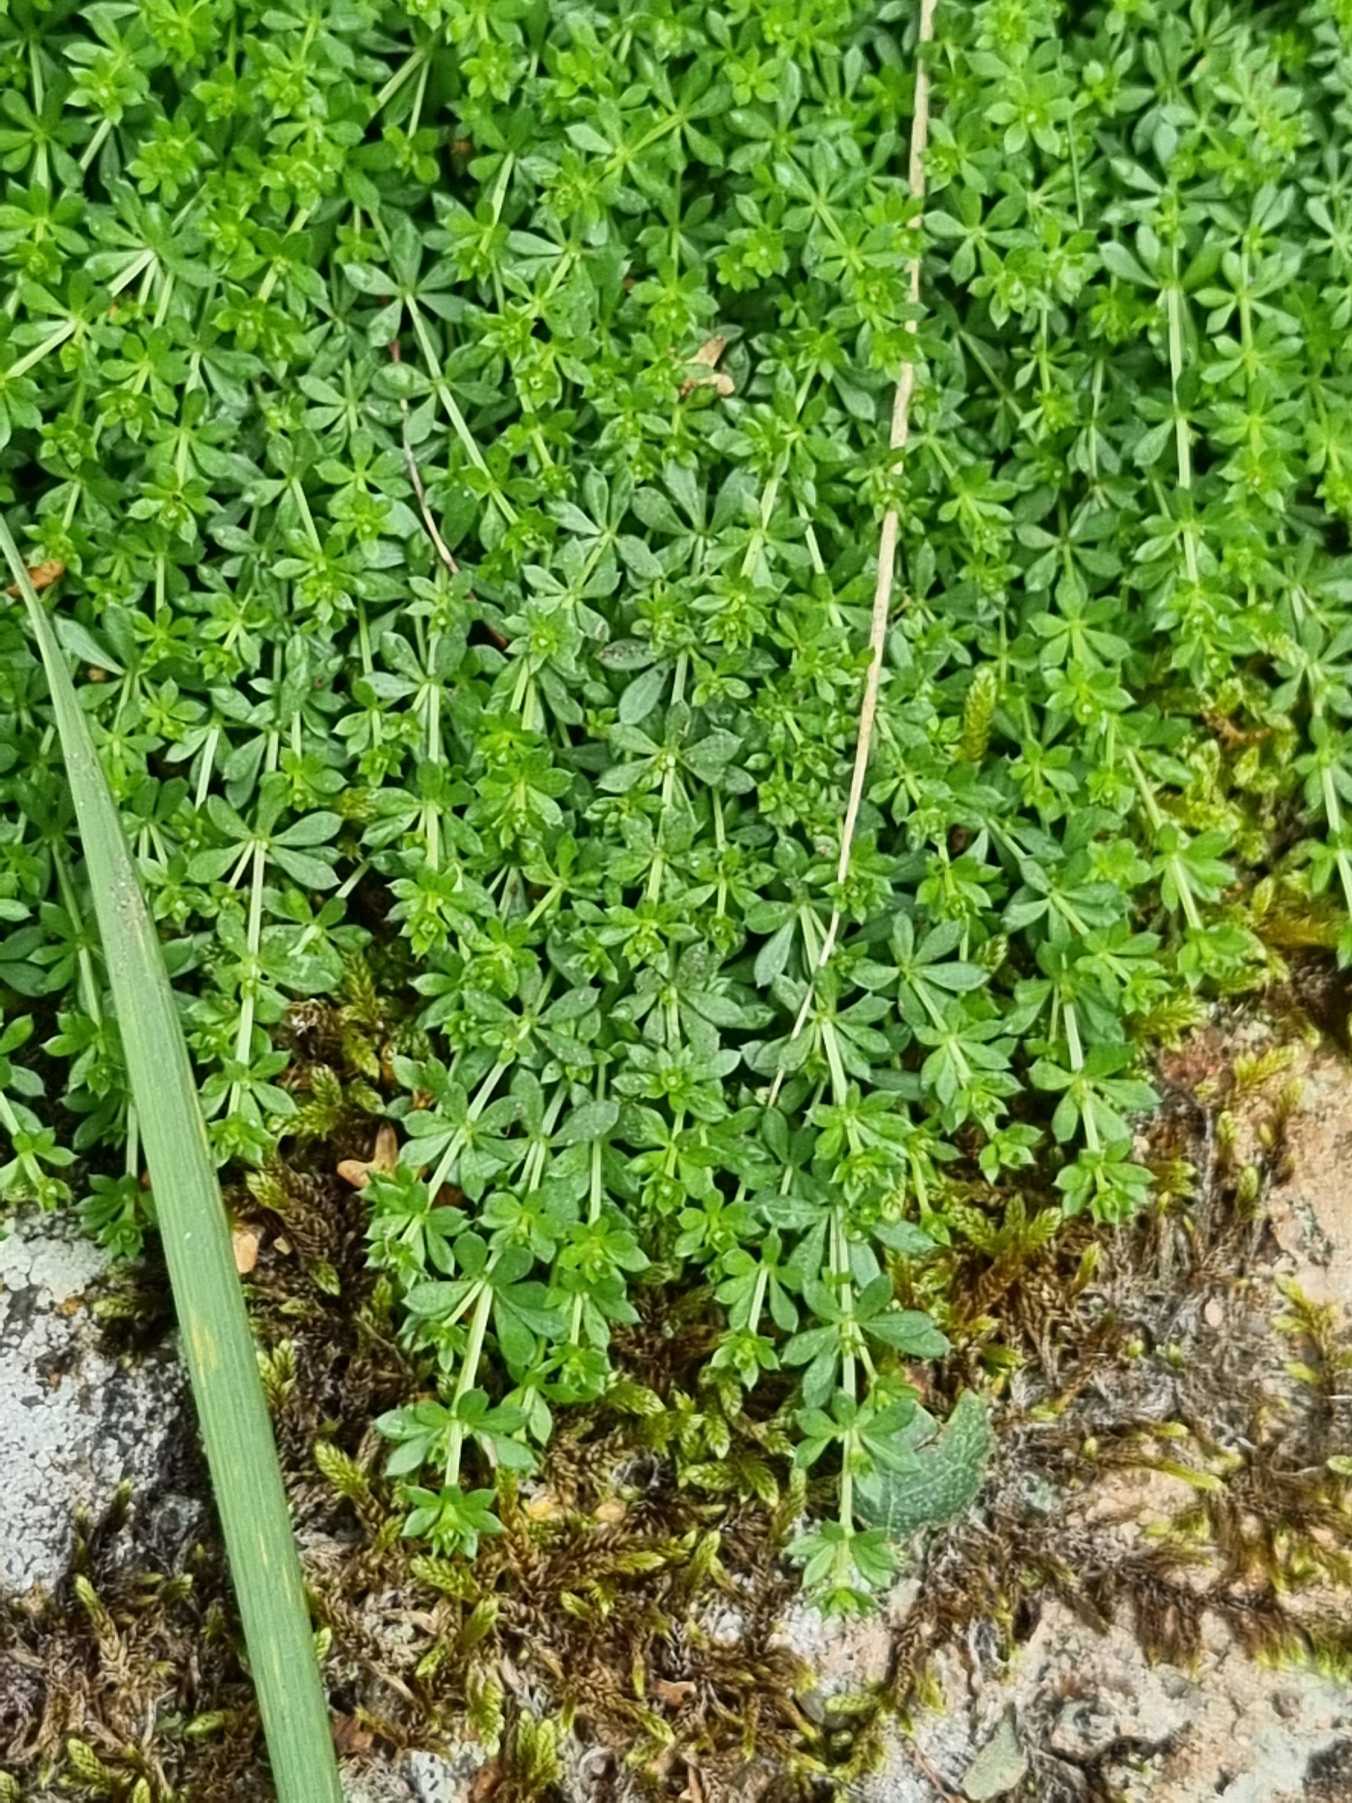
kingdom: Plantae
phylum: Tracheophyta
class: Magnoliopsida
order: Gentianales
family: Rubiaceae
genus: Galium
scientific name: Galium saxatile
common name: Lyng-snerre
